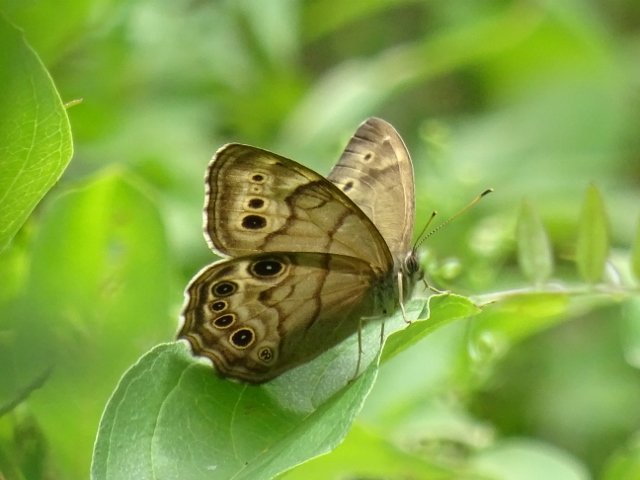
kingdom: Animalia
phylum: Arthropoda
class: Insecta
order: Lepidoptera
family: Nymphalidae
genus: Lethe
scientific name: Lethe anthedon
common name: Northern Pearly-Eye
